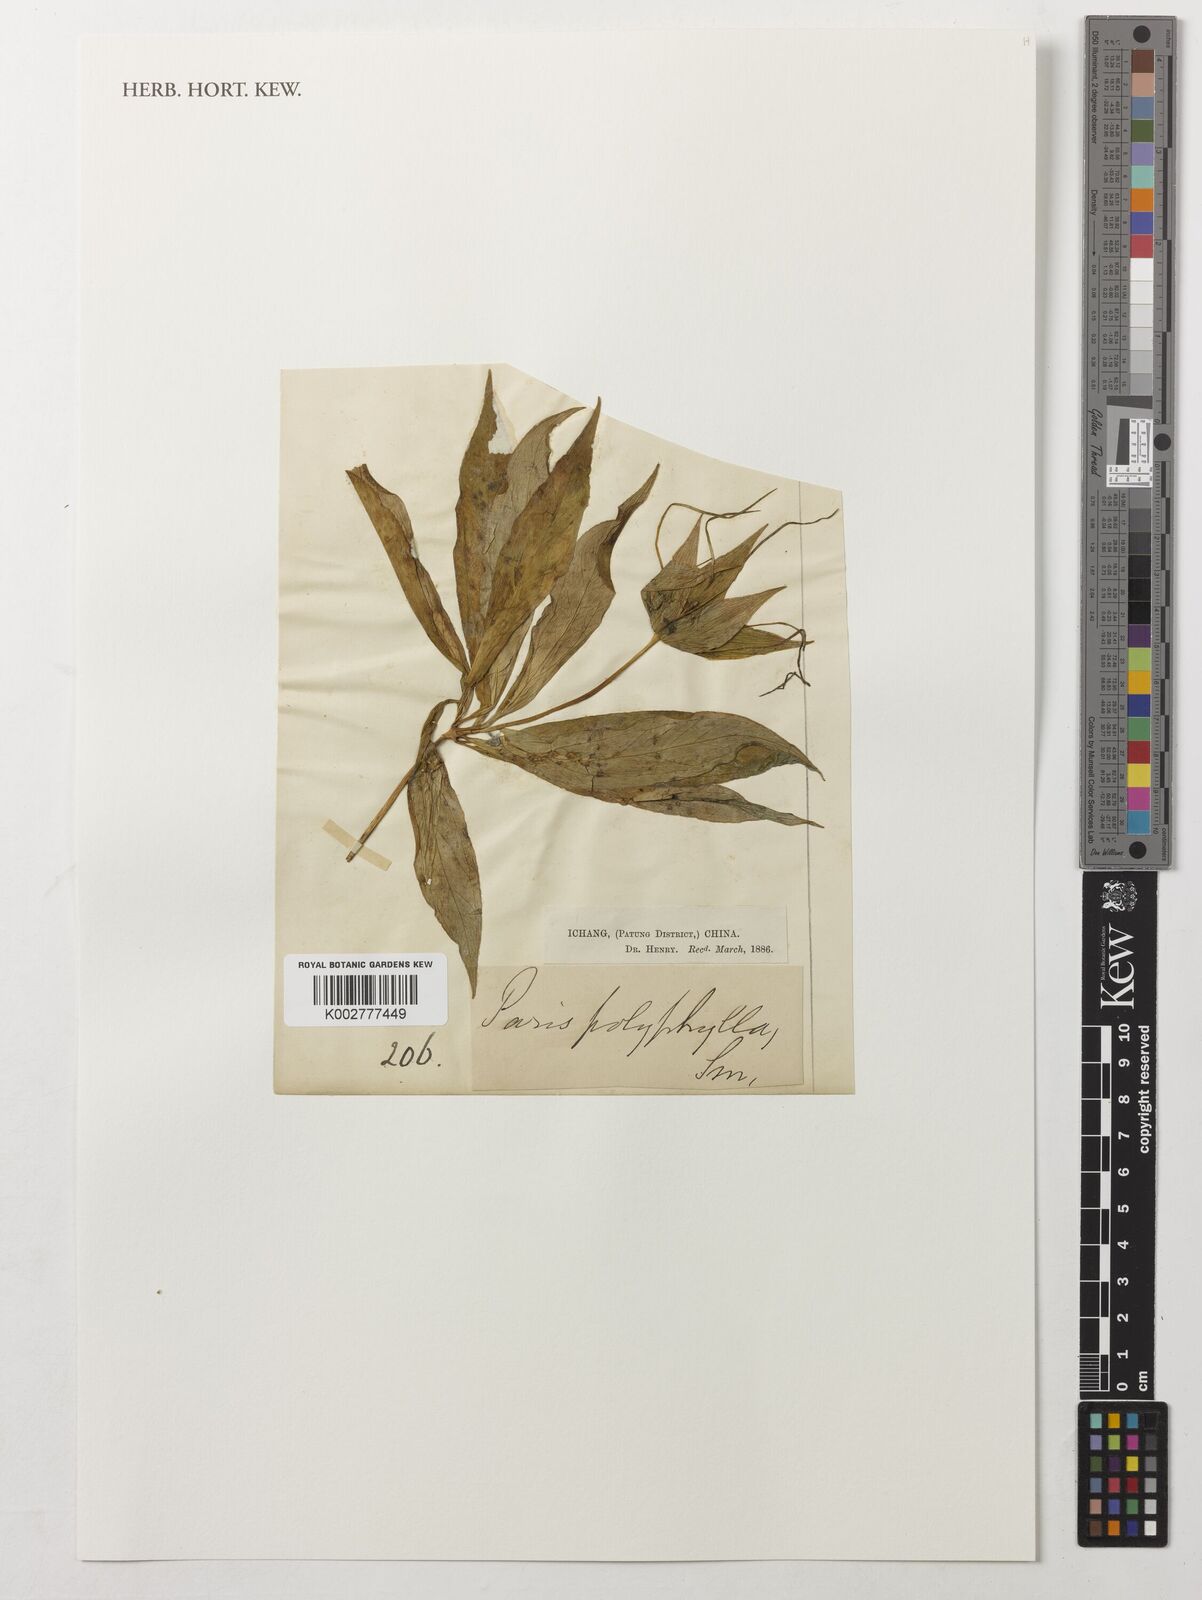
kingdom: Plantae
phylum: Tracheophyta
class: Liliopsida
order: Liliales
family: Melanthiaceae
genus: Paris
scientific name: Paris polyphylla
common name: Love apple
